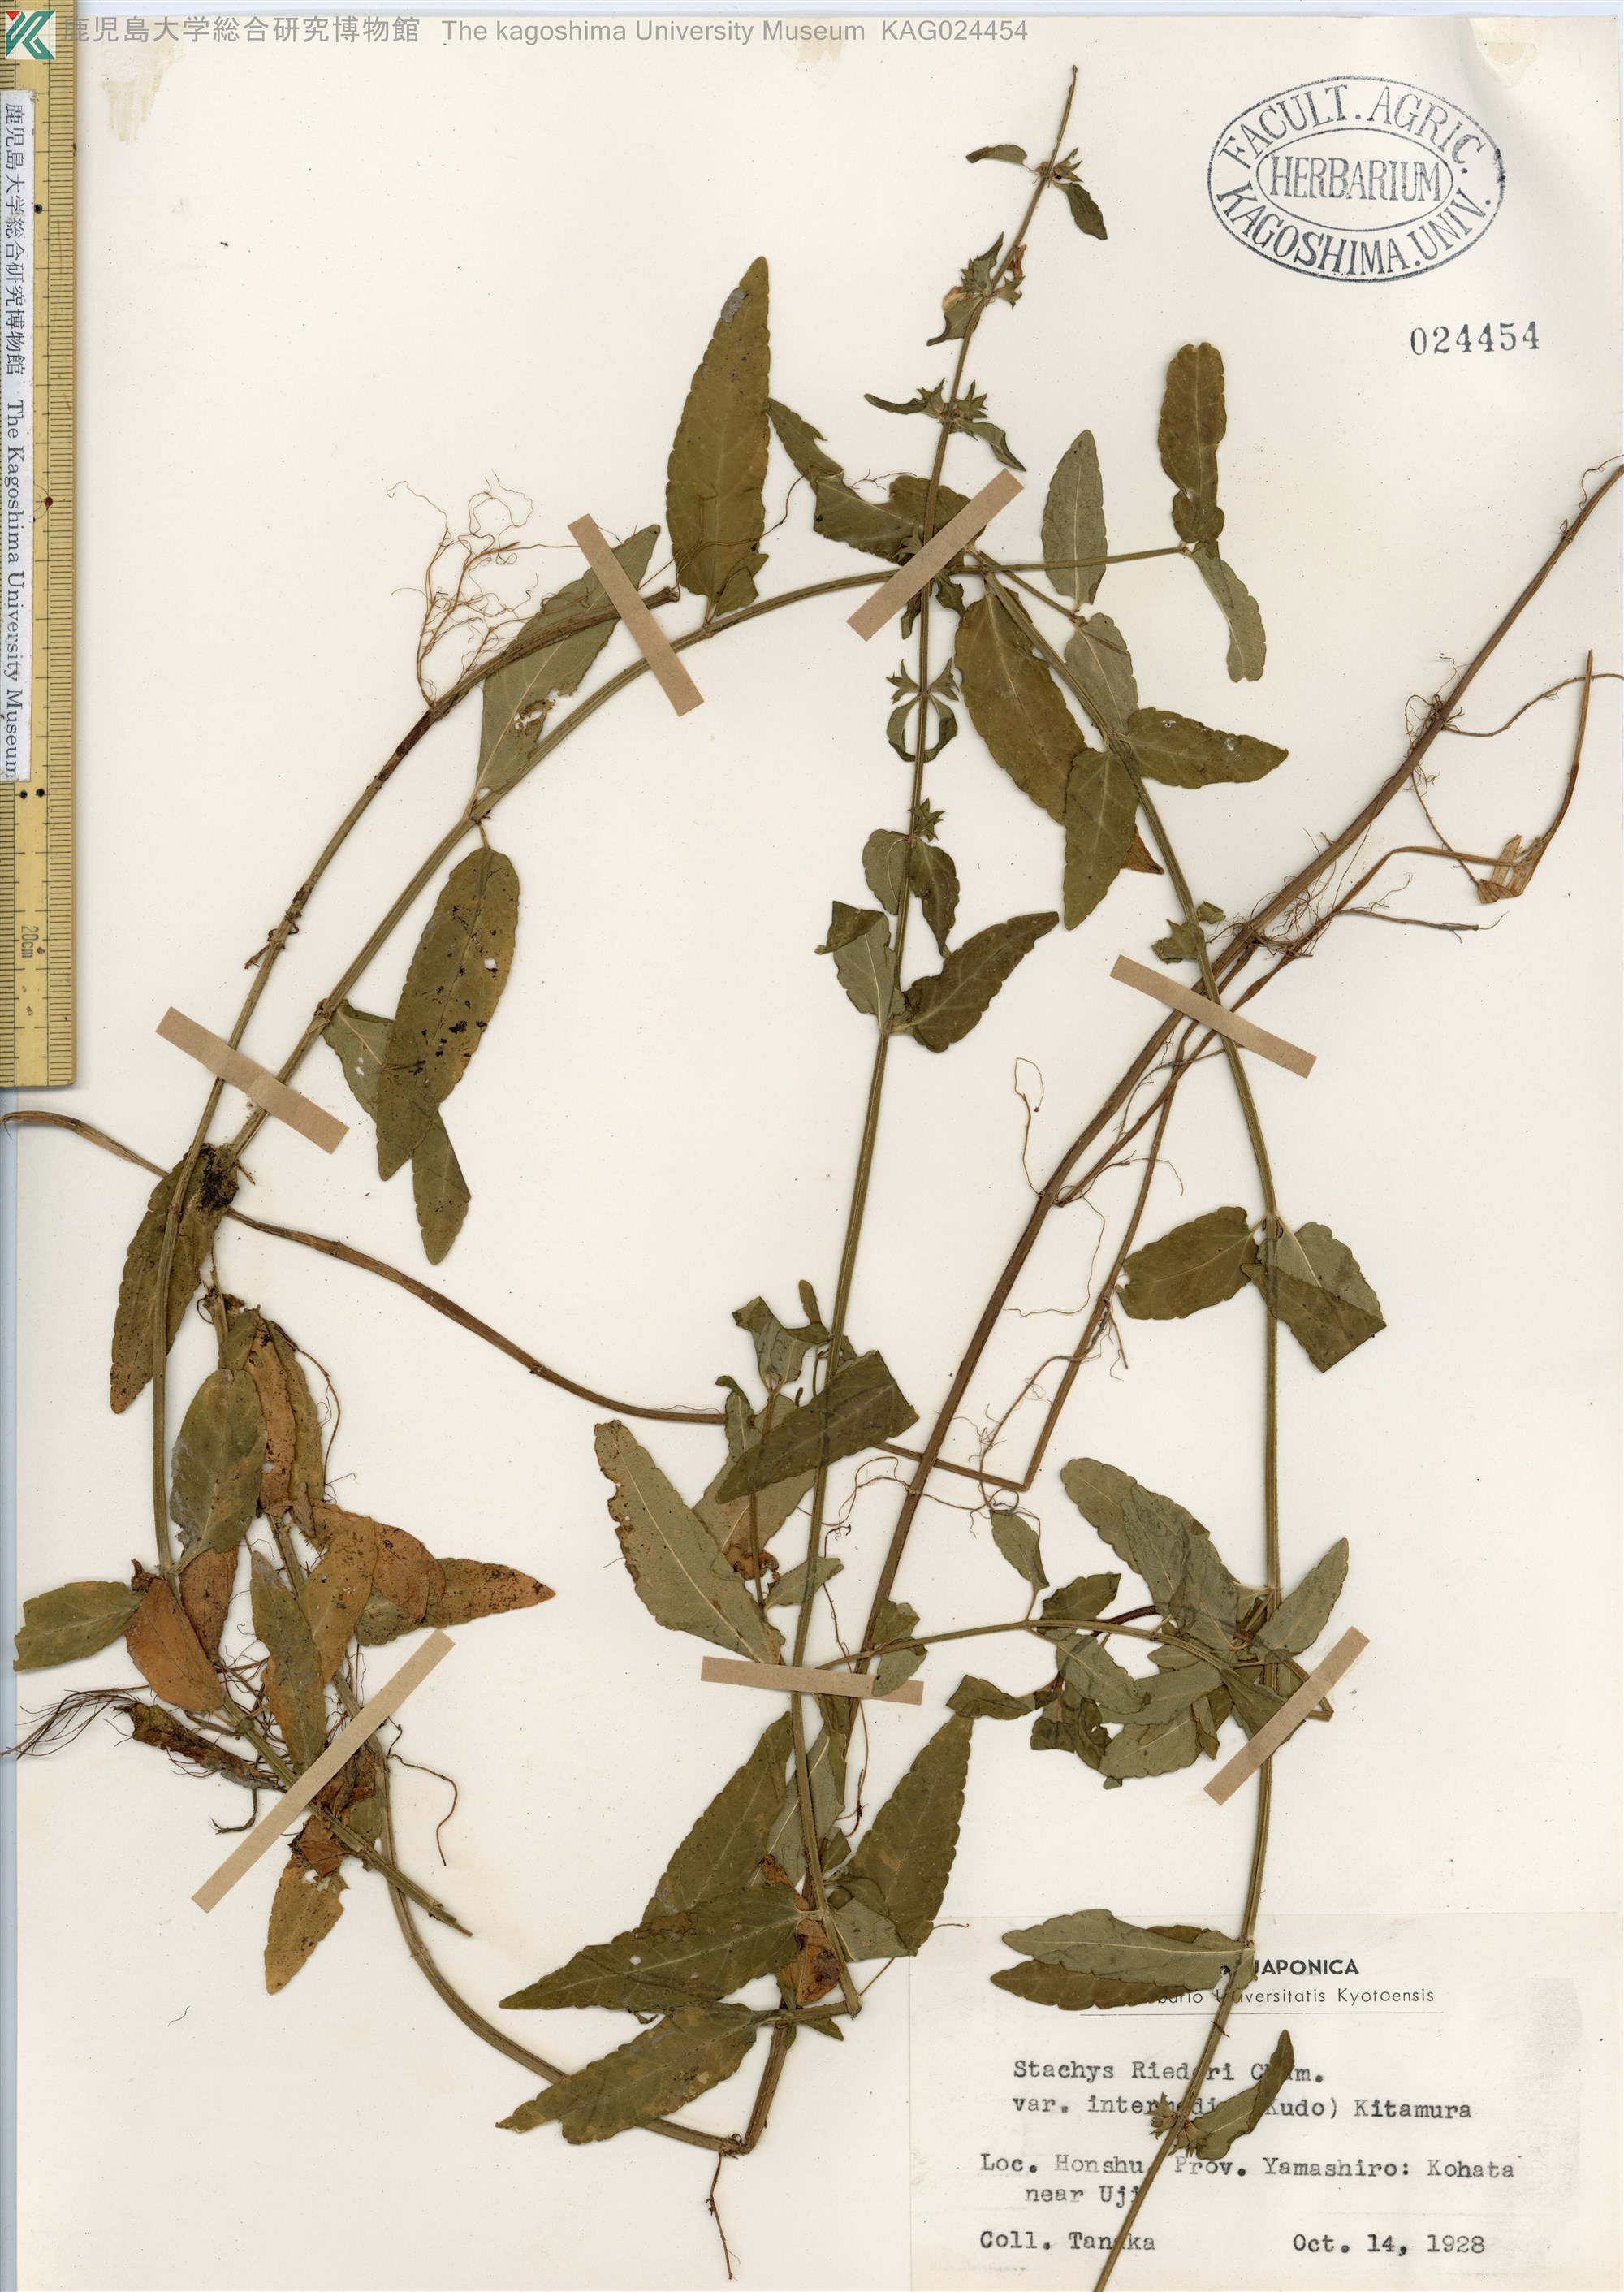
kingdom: Plantae
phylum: Tracheophyta
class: Magnoliopsida
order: Lamiales
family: Lamiaceae
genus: Stachys
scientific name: Stachys aspera
